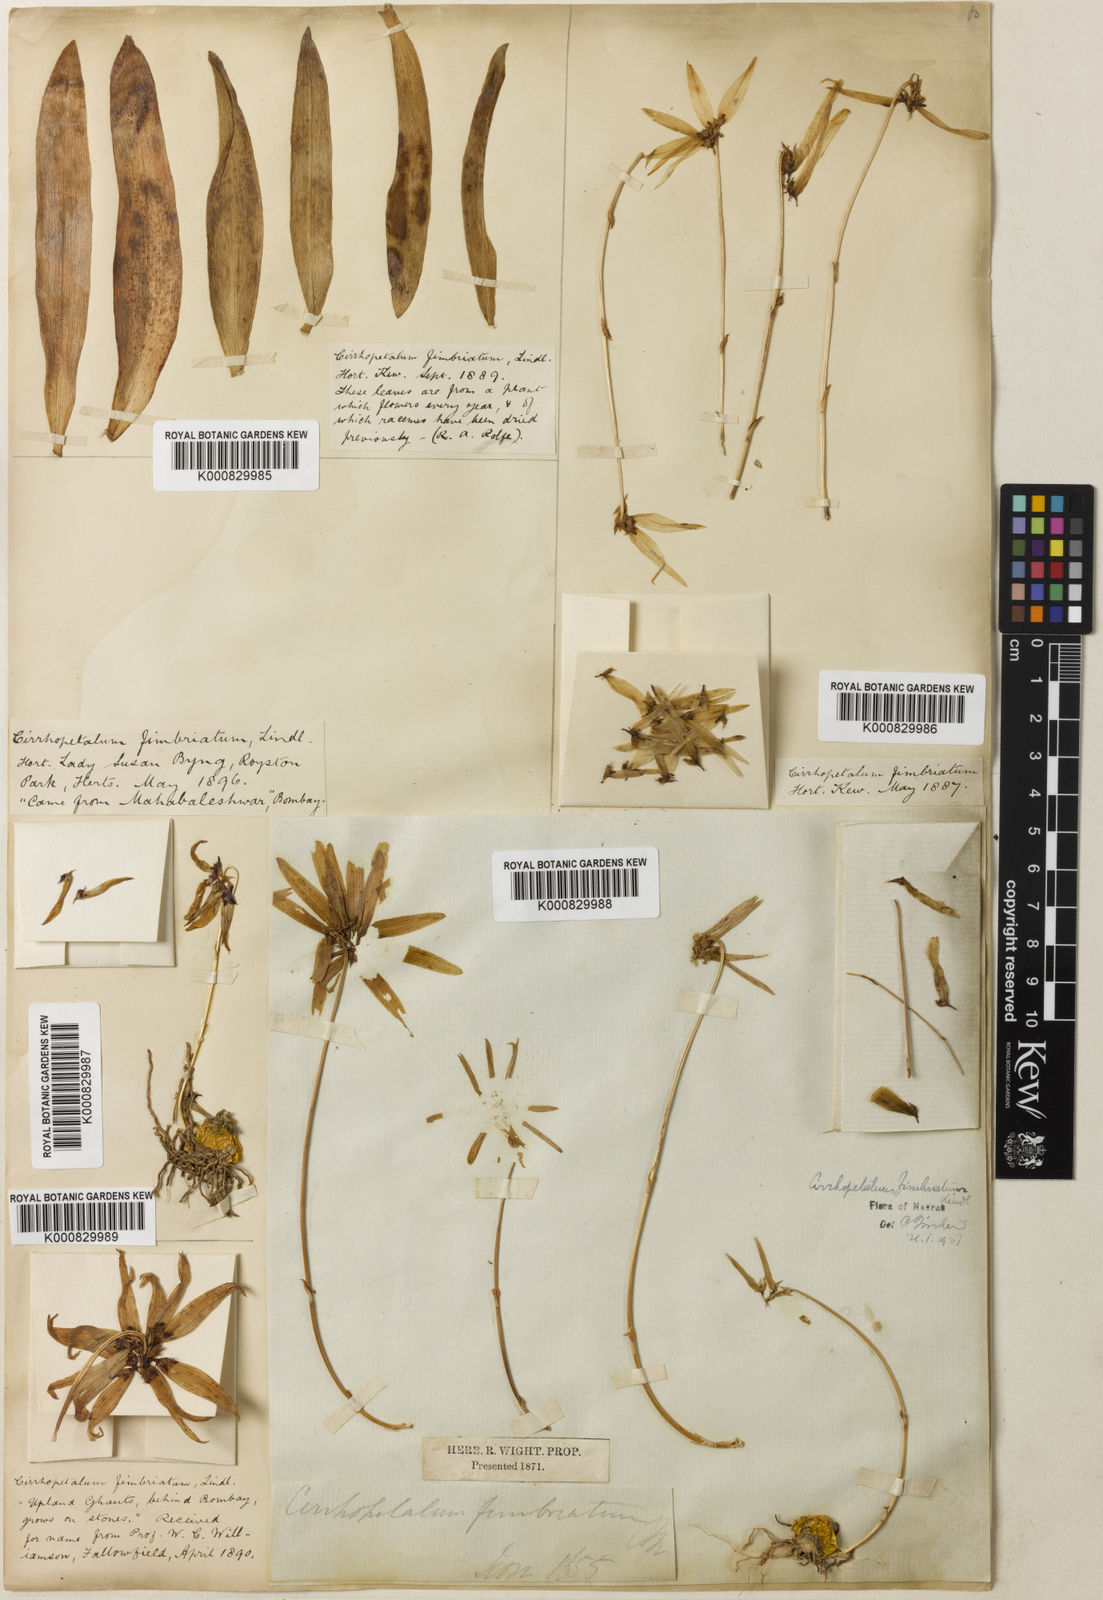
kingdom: Plantae
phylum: Tracheophyta
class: Liliopsida
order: Asparagales
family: Orchidaceae
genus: Bulbophyllum
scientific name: Bulbophyllum fimbriatum
